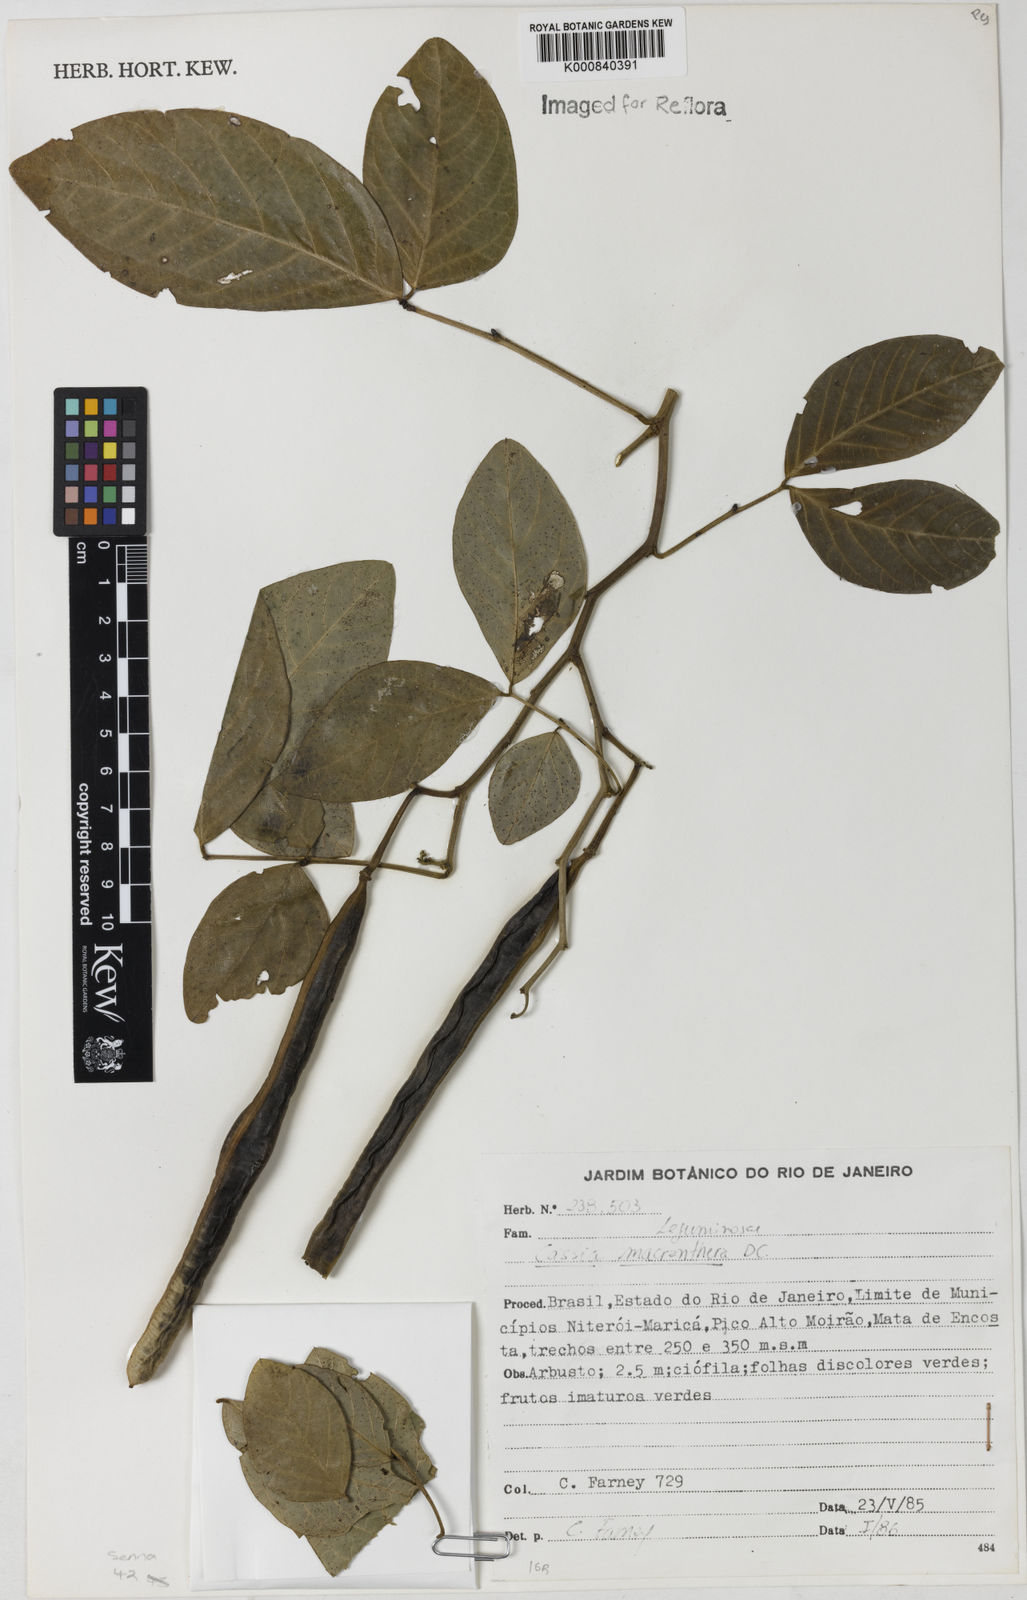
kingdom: Plantae
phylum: Tracheophyta
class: Magnoliopsida
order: Fabales
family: Fabaceae
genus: Senna
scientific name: Senna affinis
